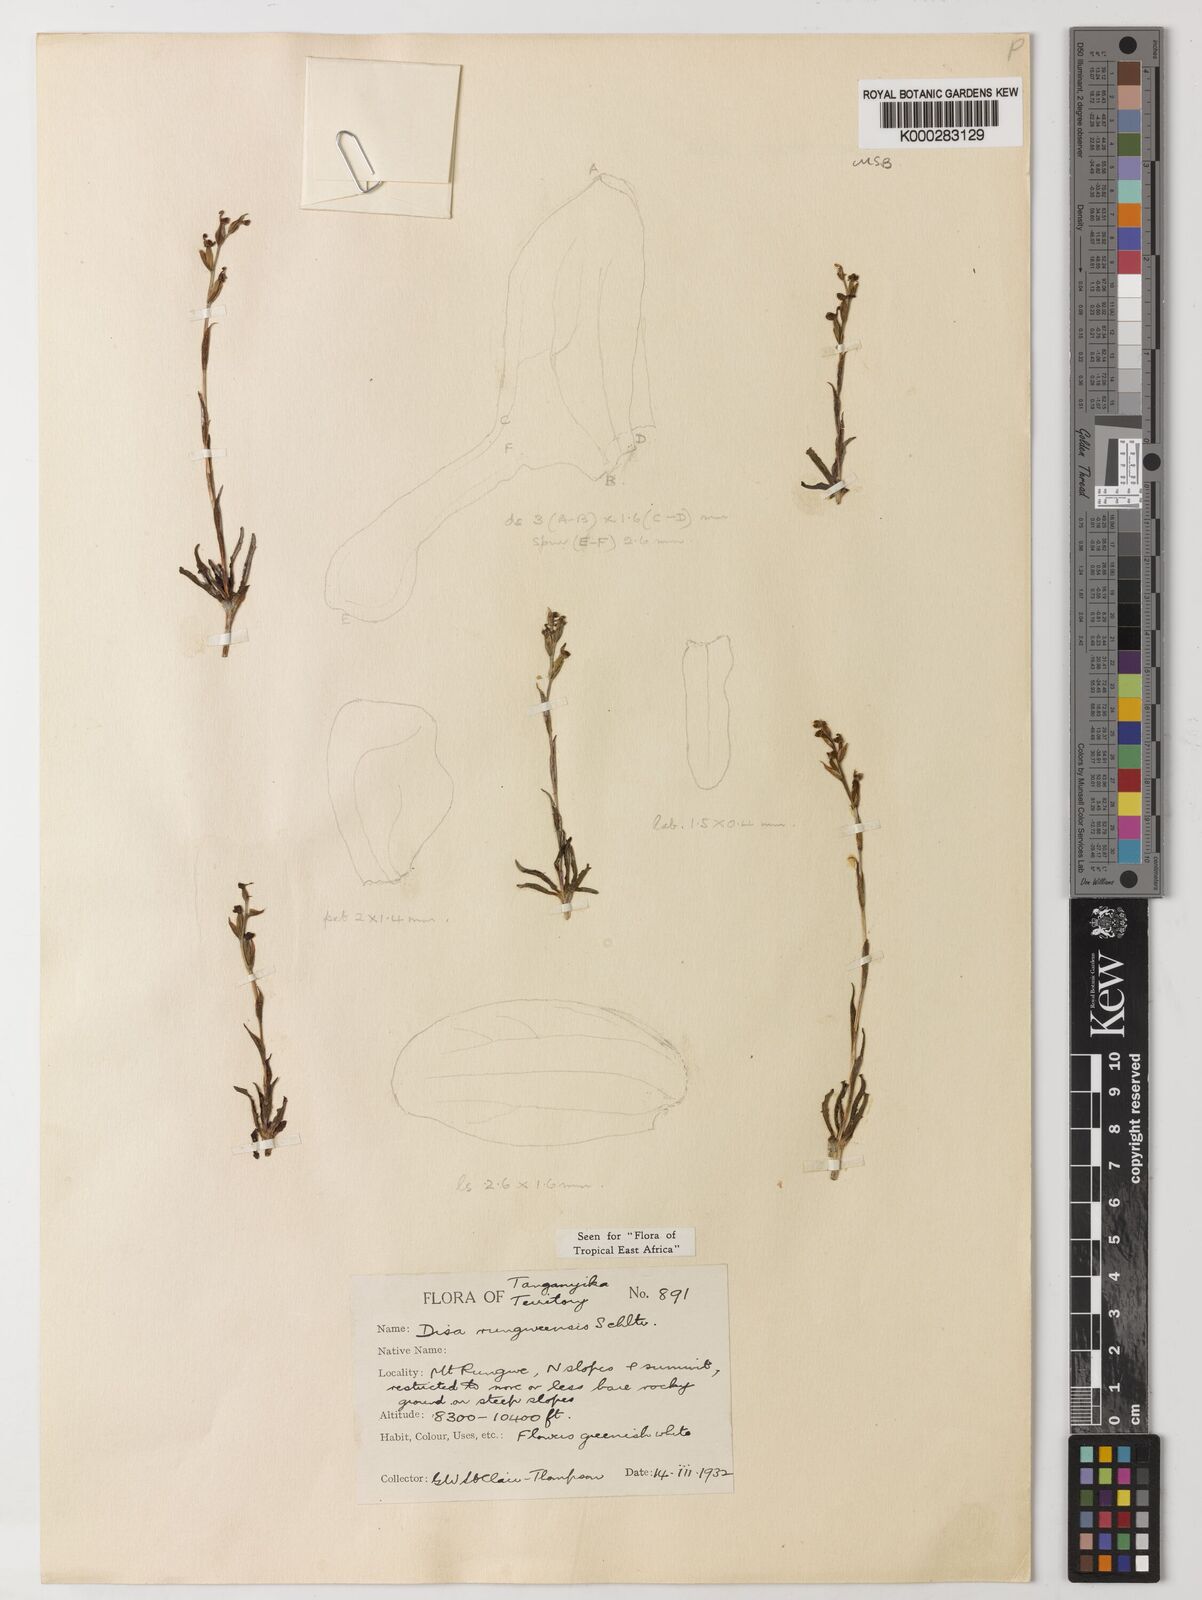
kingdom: Plantae
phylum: Tracheophyta
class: Liliopsida
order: Asparagales
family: Orchidaceae
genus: Disa
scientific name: Disa rungweensis
